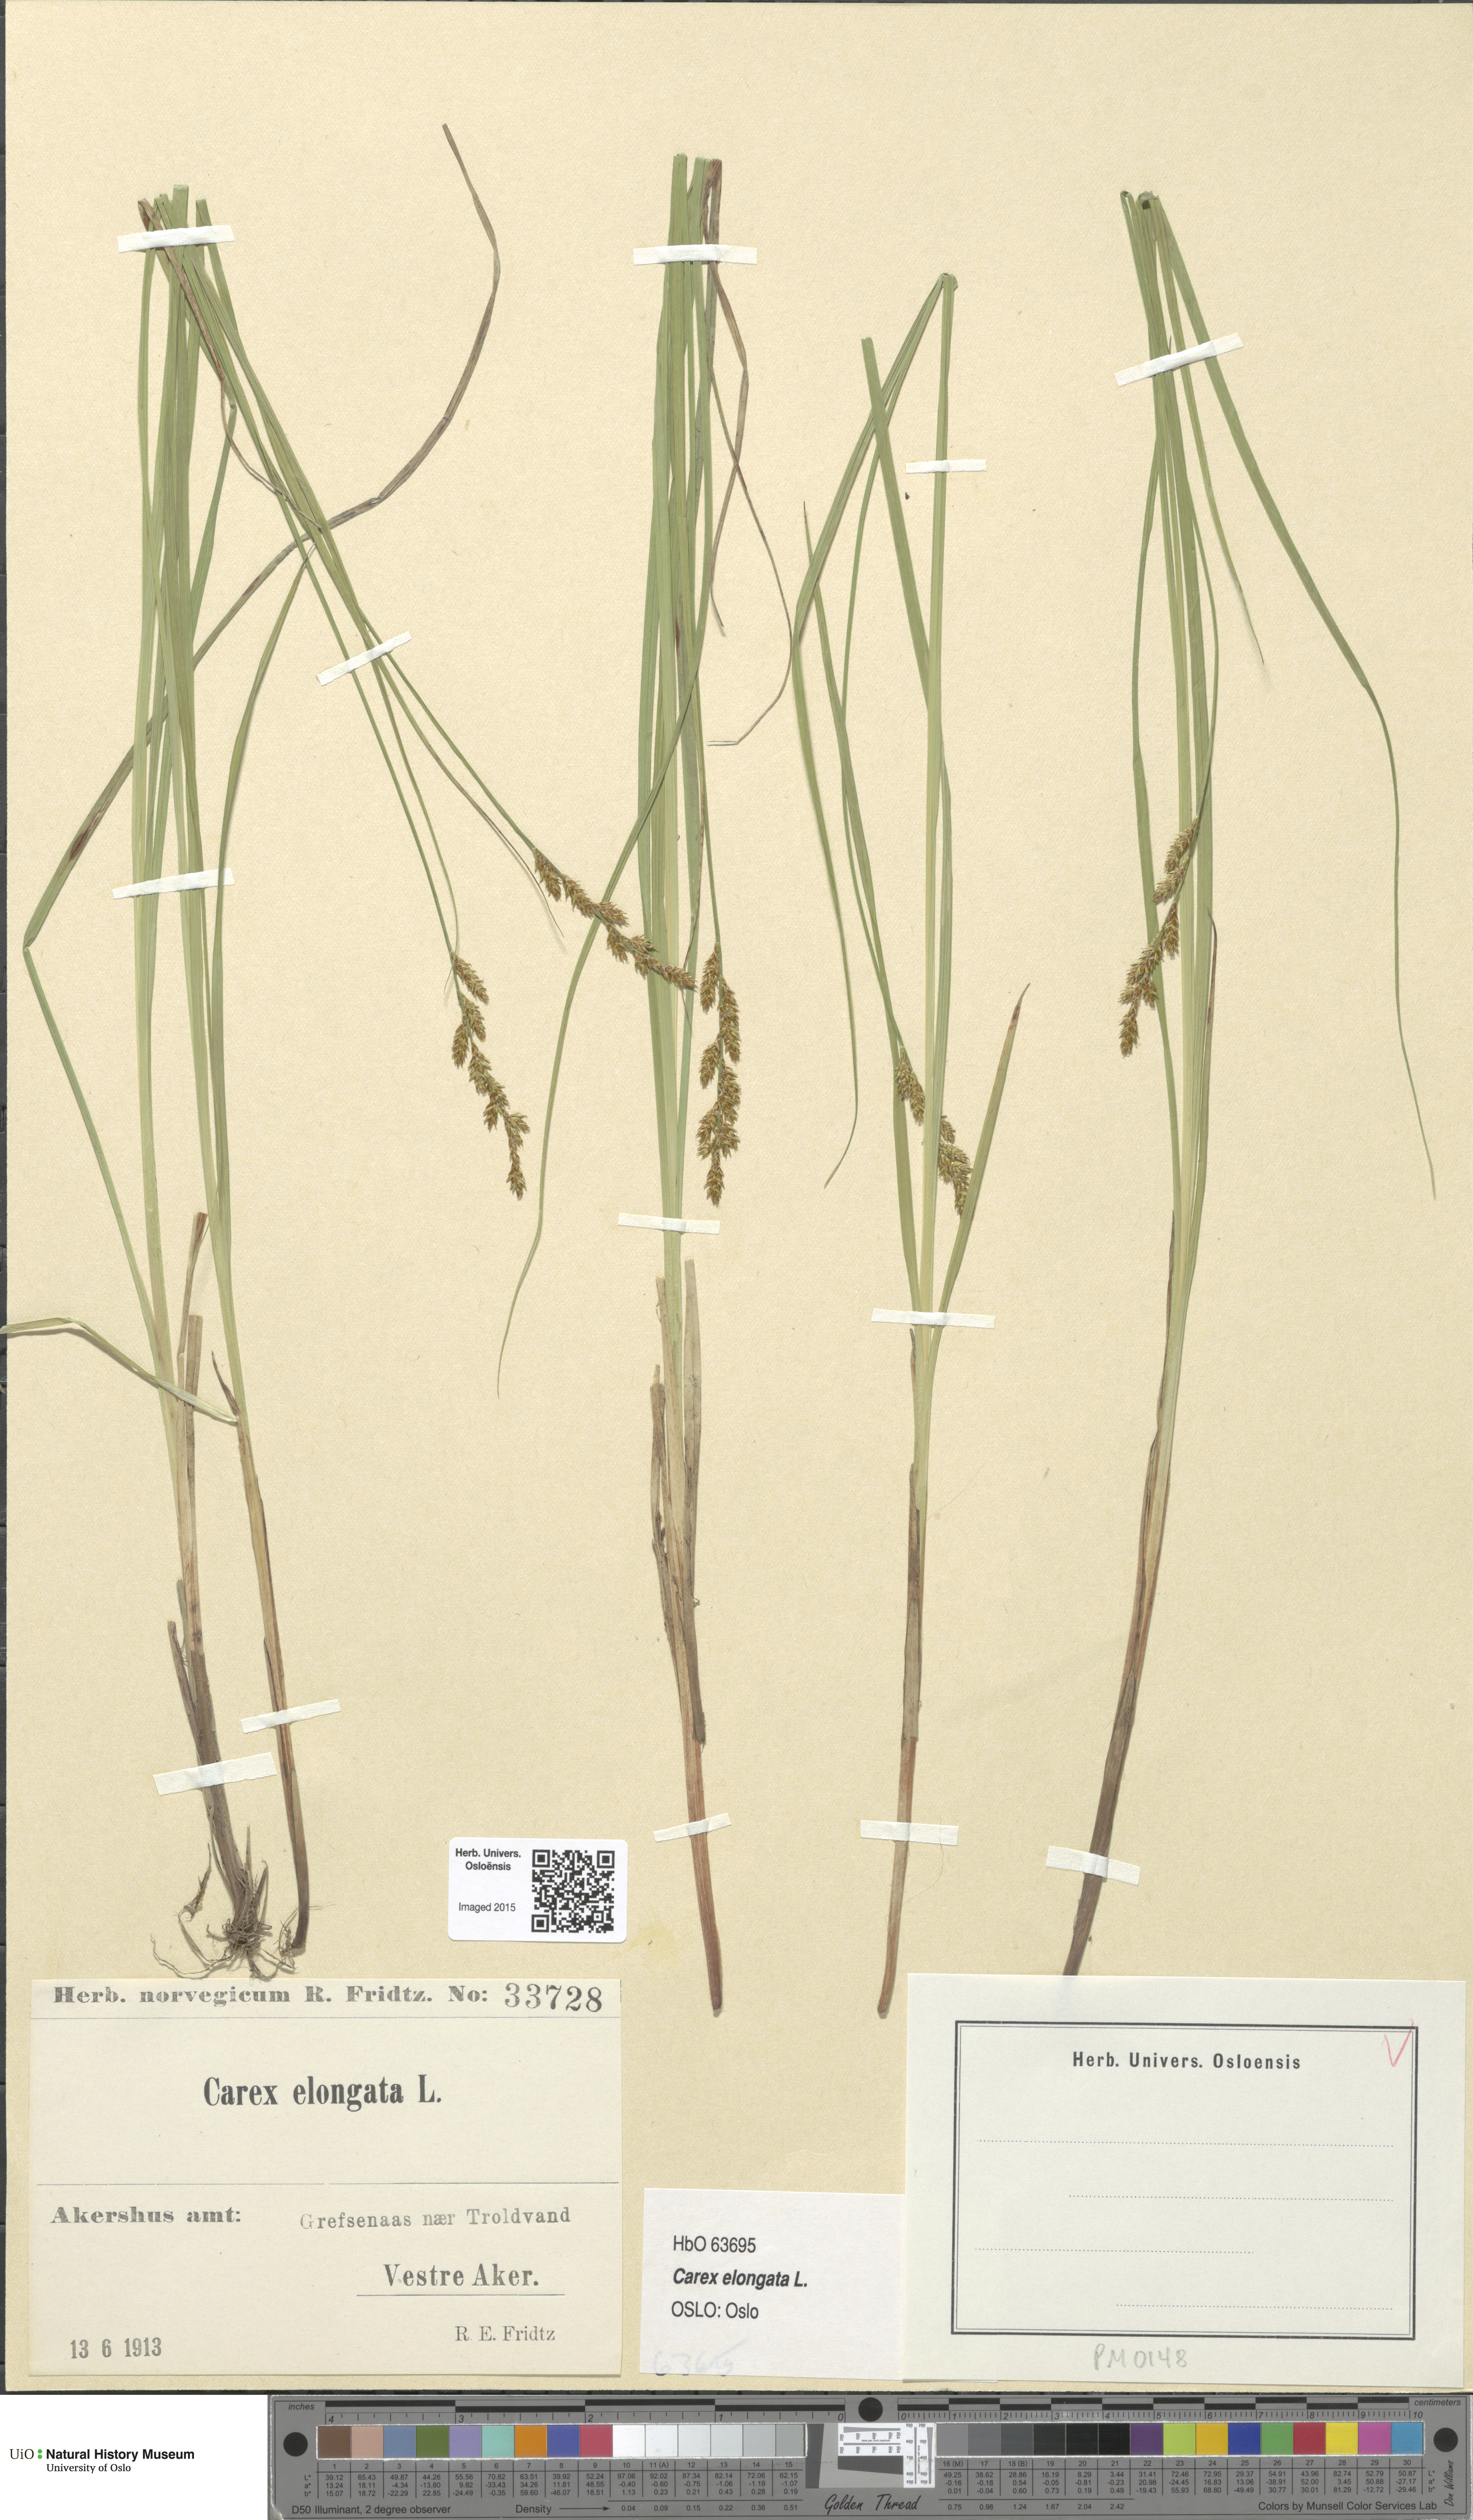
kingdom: Plantae
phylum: Tracheophyta
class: Liliopsida
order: Poales
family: Cyperaceae
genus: Carex
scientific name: Carex elongata
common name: Elongated sedge
